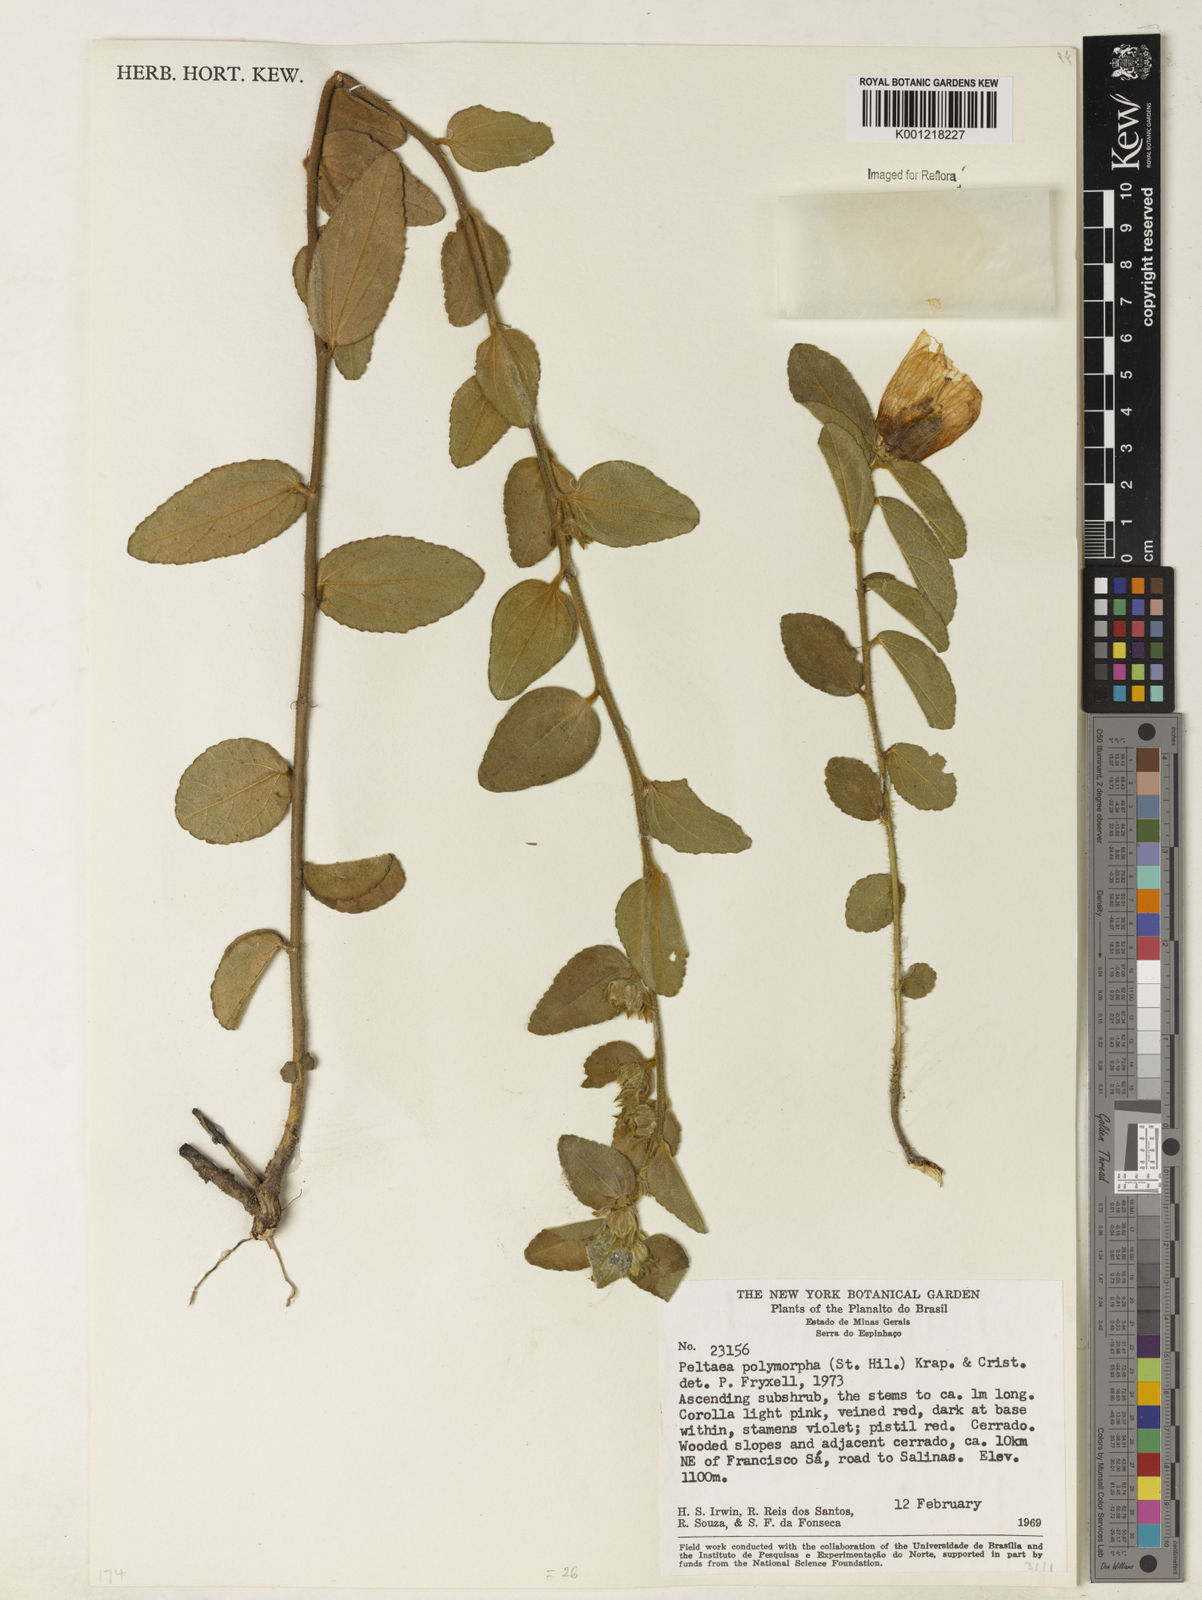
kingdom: Plantae
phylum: Tracheophyta
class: Magnoliopsida
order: Malvales
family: Malvaceae
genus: Peltaea
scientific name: Peltaea
